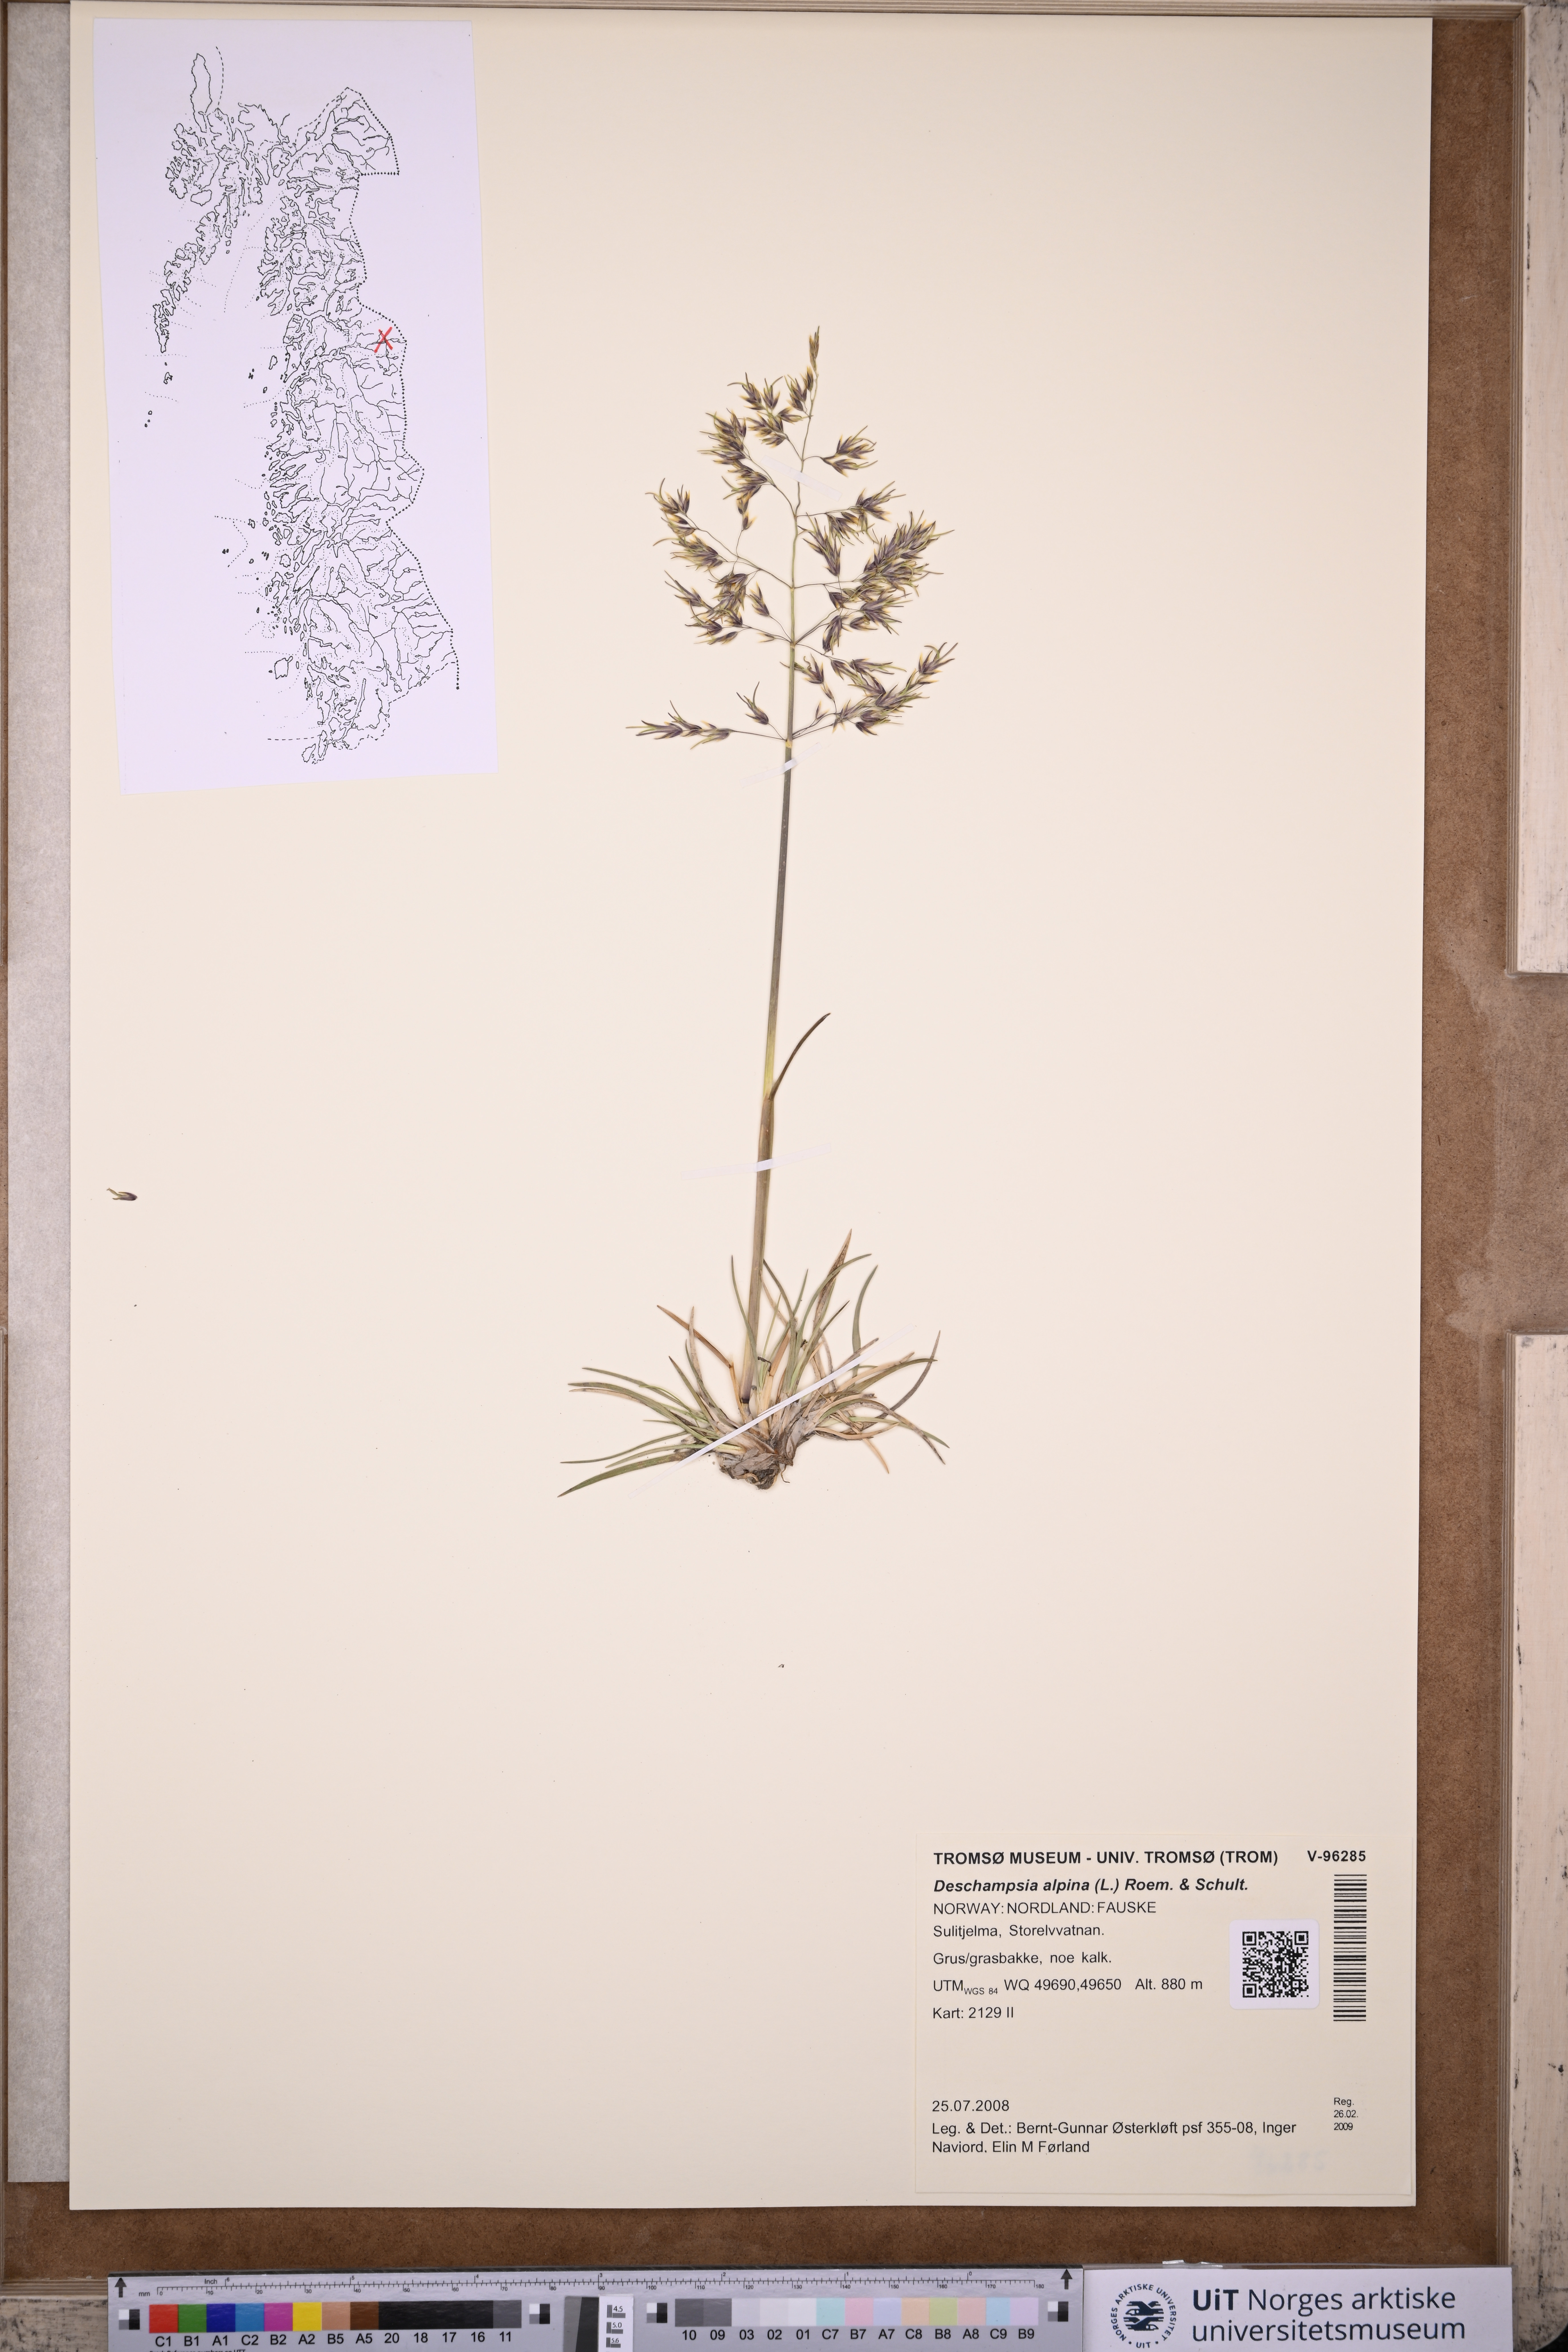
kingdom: Plantae
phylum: Tracheophyta
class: Liliopsida
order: Poales
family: Poaceae
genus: Deschampsia
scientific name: Deschampsia cespitosa
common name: Tufted hair-grass
